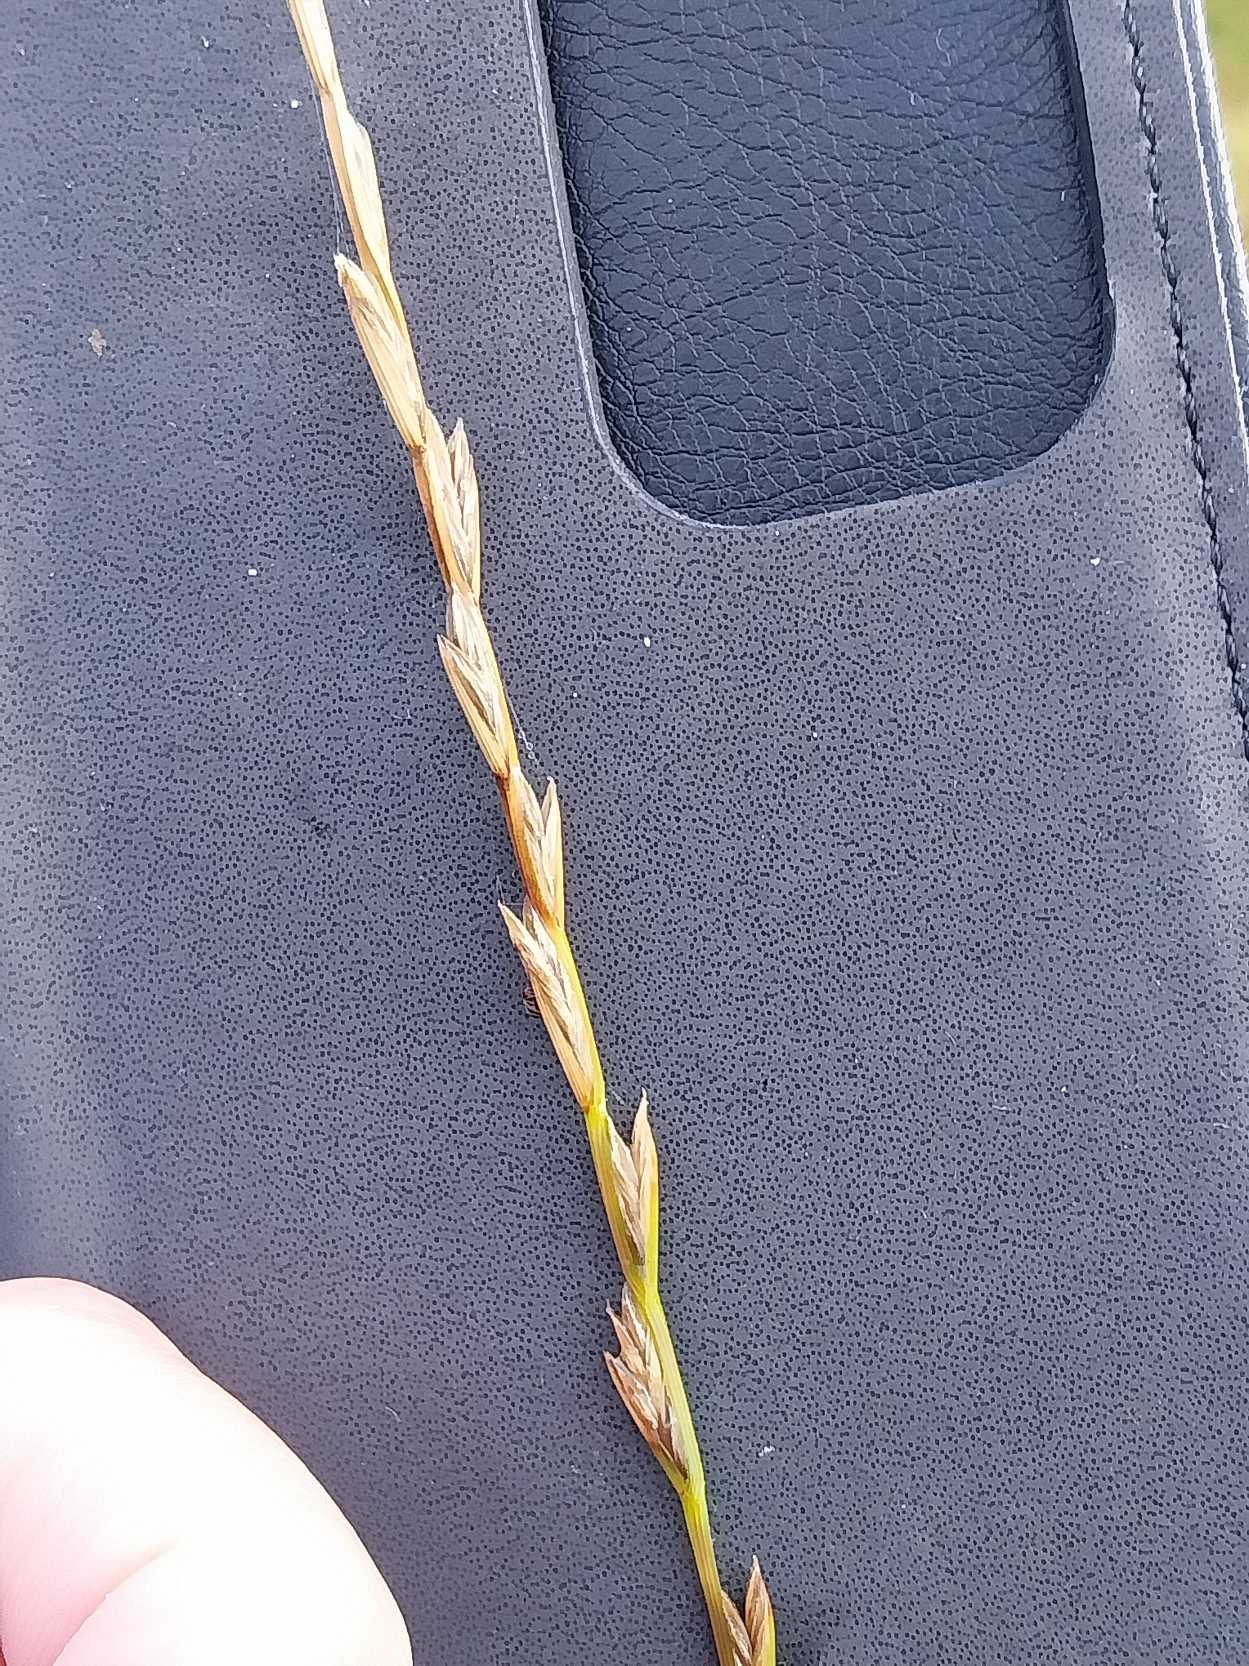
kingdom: Plantae
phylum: Tracheophyta
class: Liliopsida
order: Poales
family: Poaceae
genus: Lolium
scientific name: Lolium perenne
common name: Almindelig rajgræs
